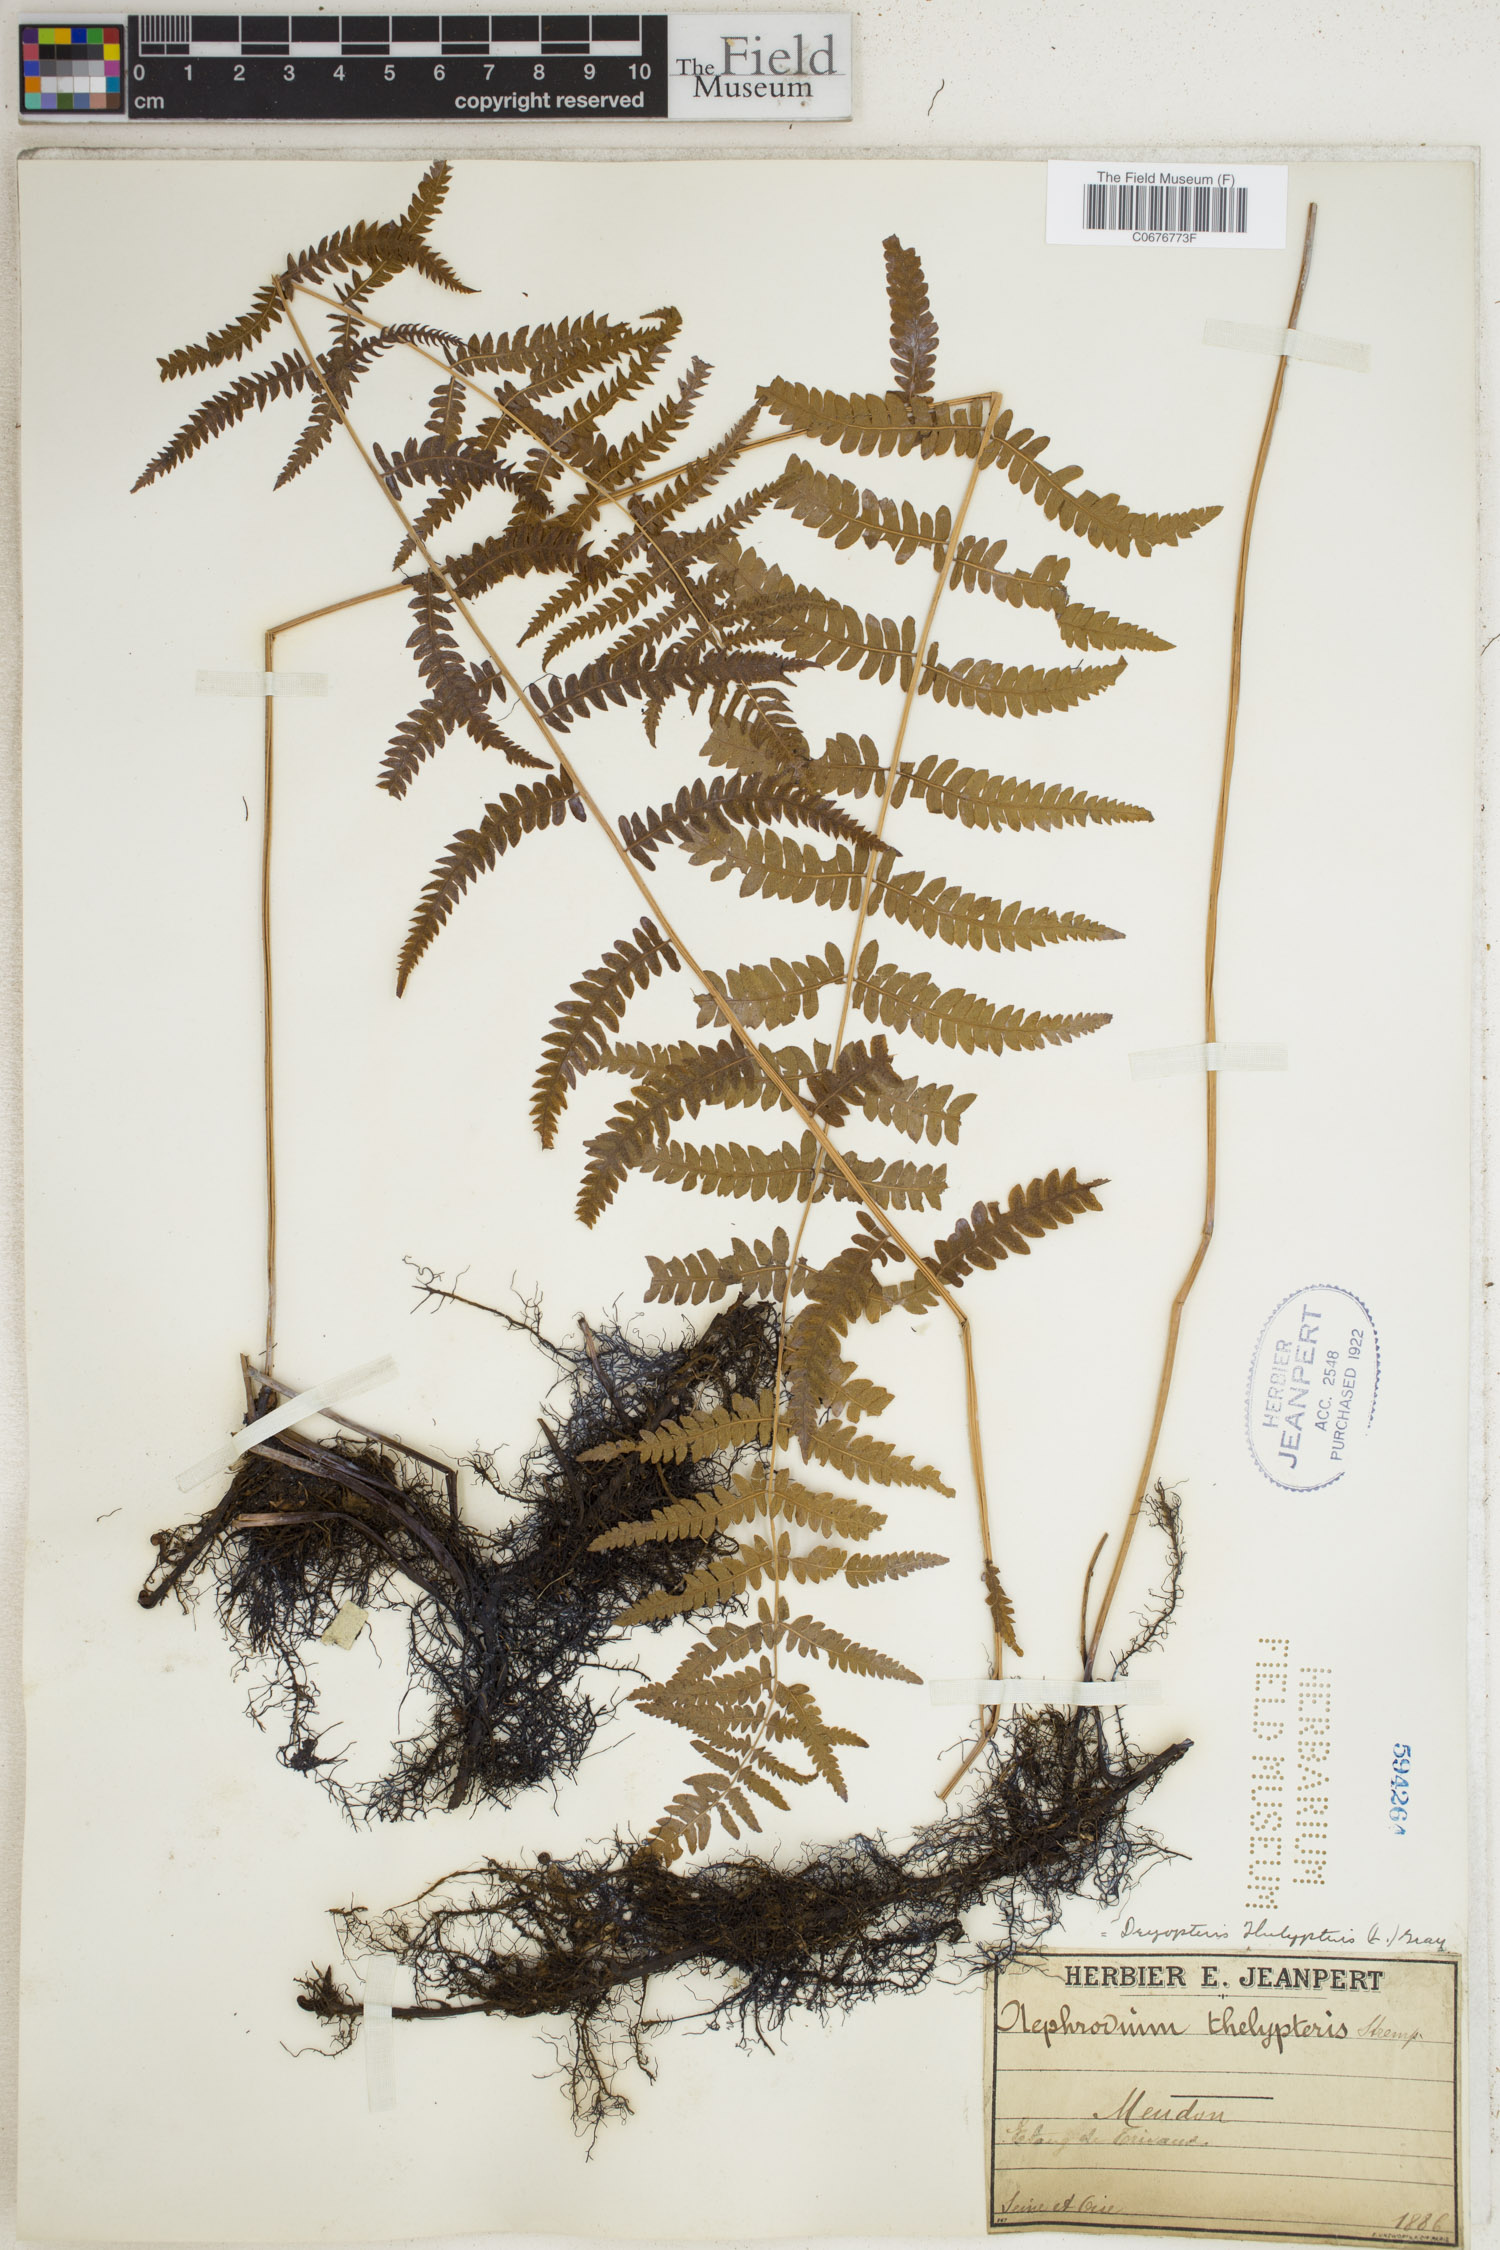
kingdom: Plantae
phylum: Tracheophyta
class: Polypodiopsida
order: Polypodiales
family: Thelypteridaceae
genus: Thelypteris
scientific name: Thelypteris palustris
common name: Marsh fern
